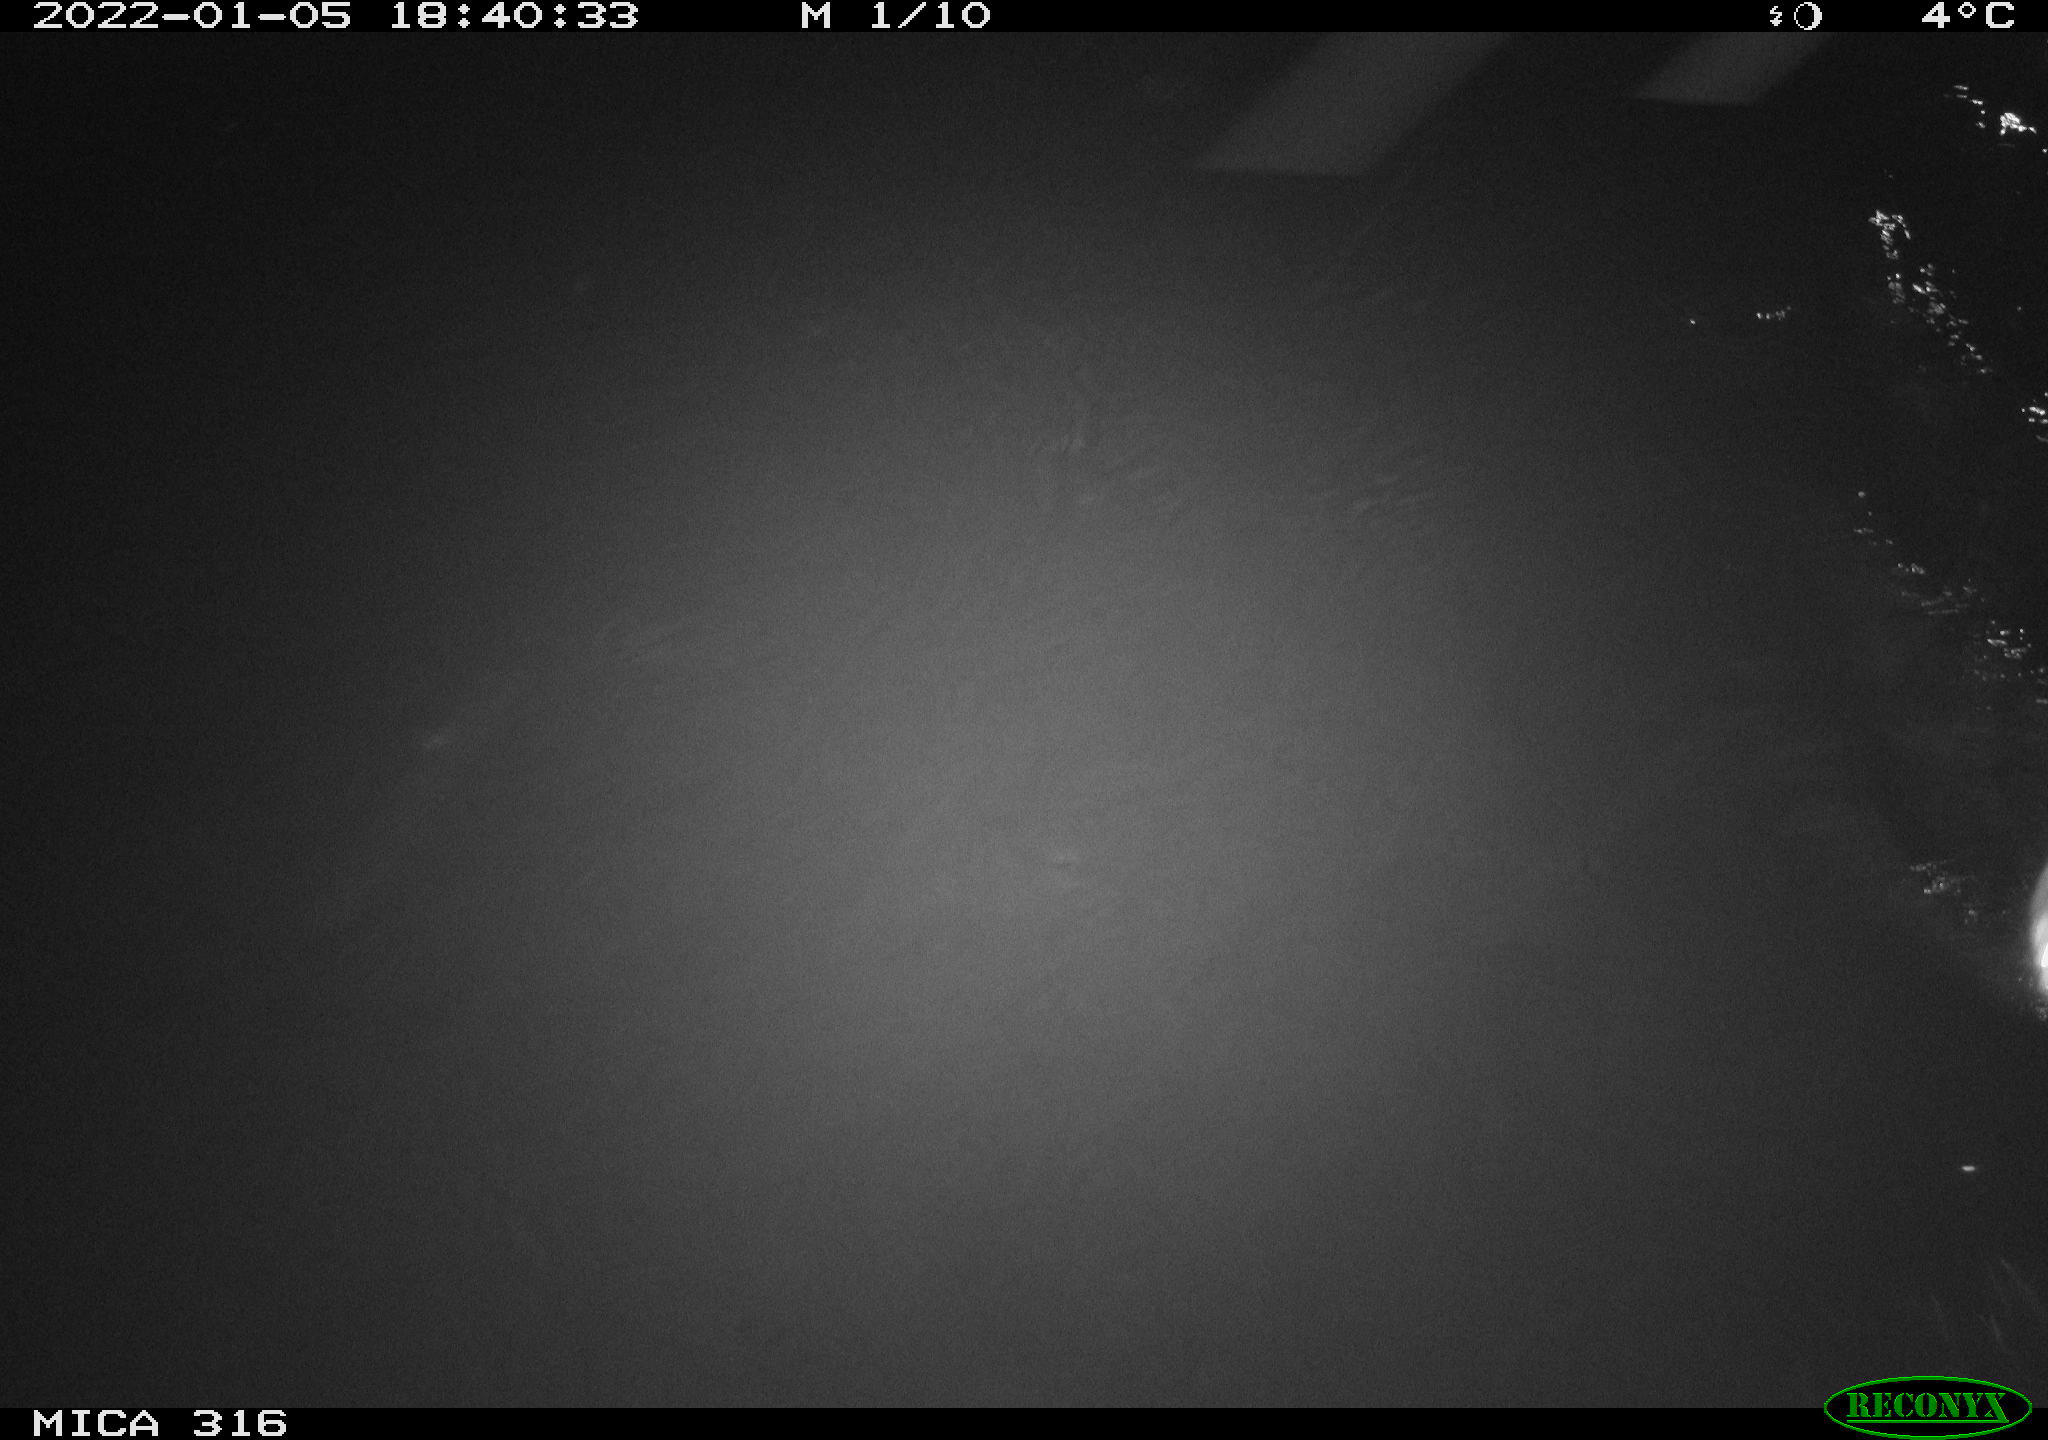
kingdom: Animalia
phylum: Chordata
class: Mammalia
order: Rodentia
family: Muridae
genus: Rattus
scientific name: Rattus norvegicus
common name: Brown rat
